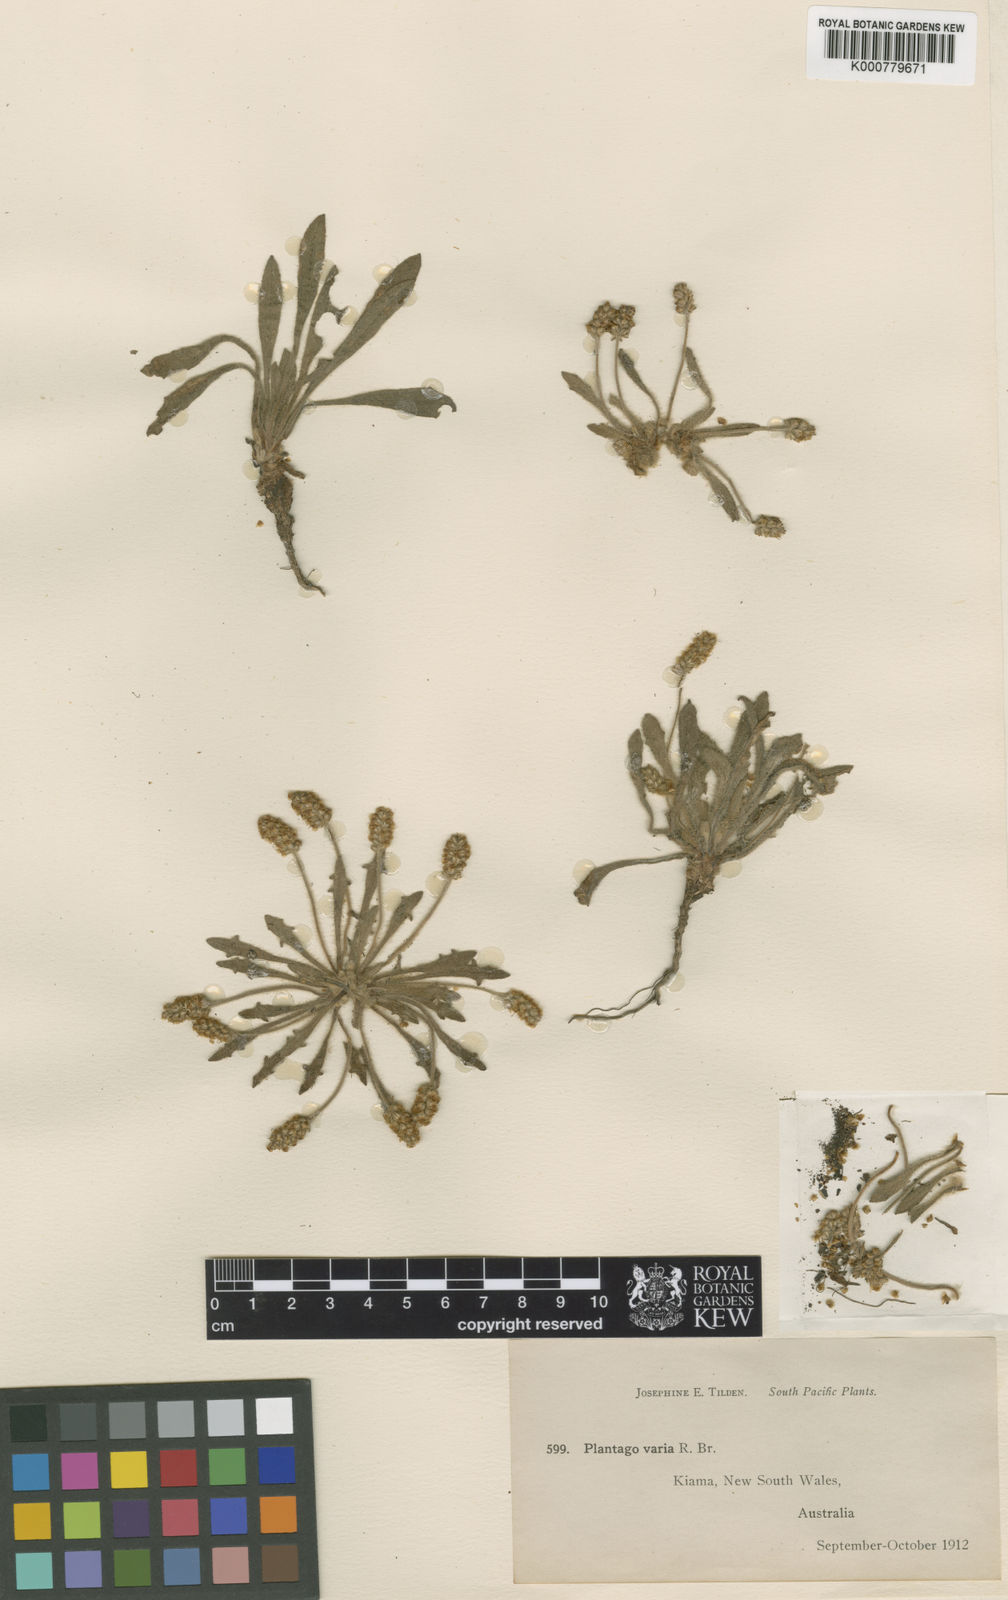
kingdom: Plantae
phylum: Tracheophyta
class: Magnoliopsida
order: Lamiales
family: Plantaginaceae
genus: Plantago
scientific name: Plantago hispida
